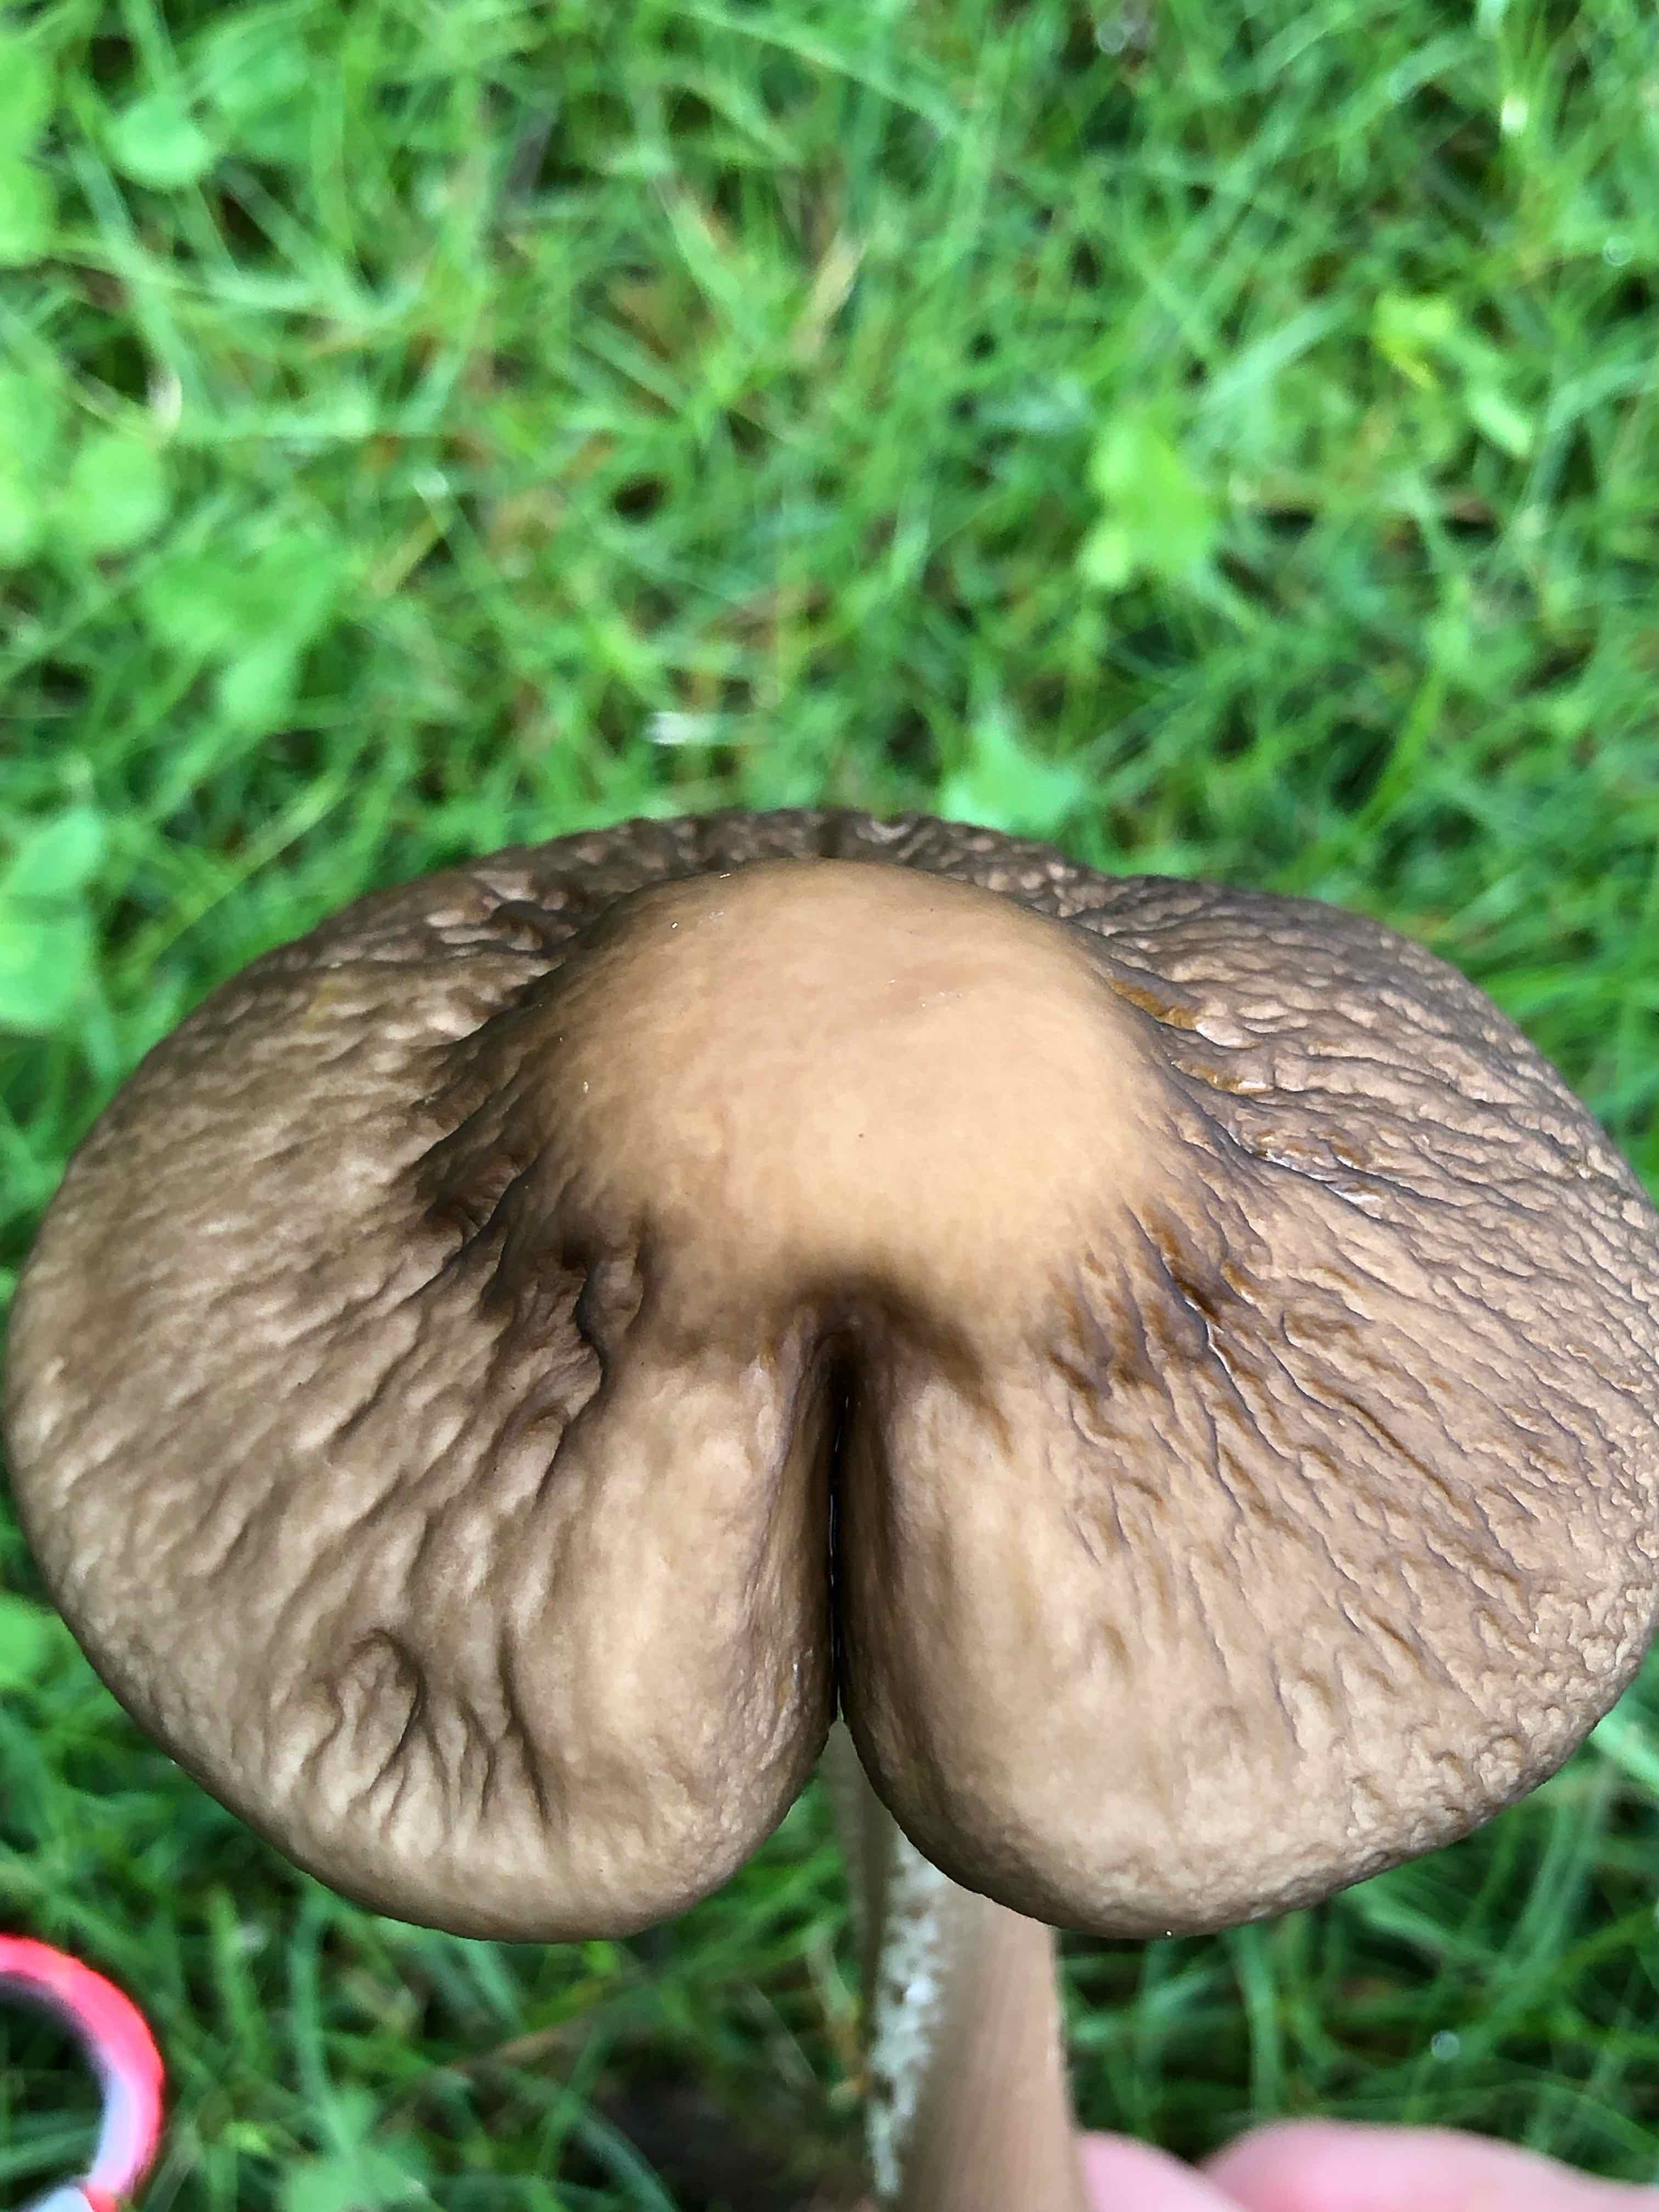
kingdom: Fungi
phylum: Basidiomycota
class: Agaricomycetes
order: Agaricales
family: Physalacriaceae
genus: Hymenopellis
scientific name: Hymenopellis radicata
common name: almindelig pælerodshat
